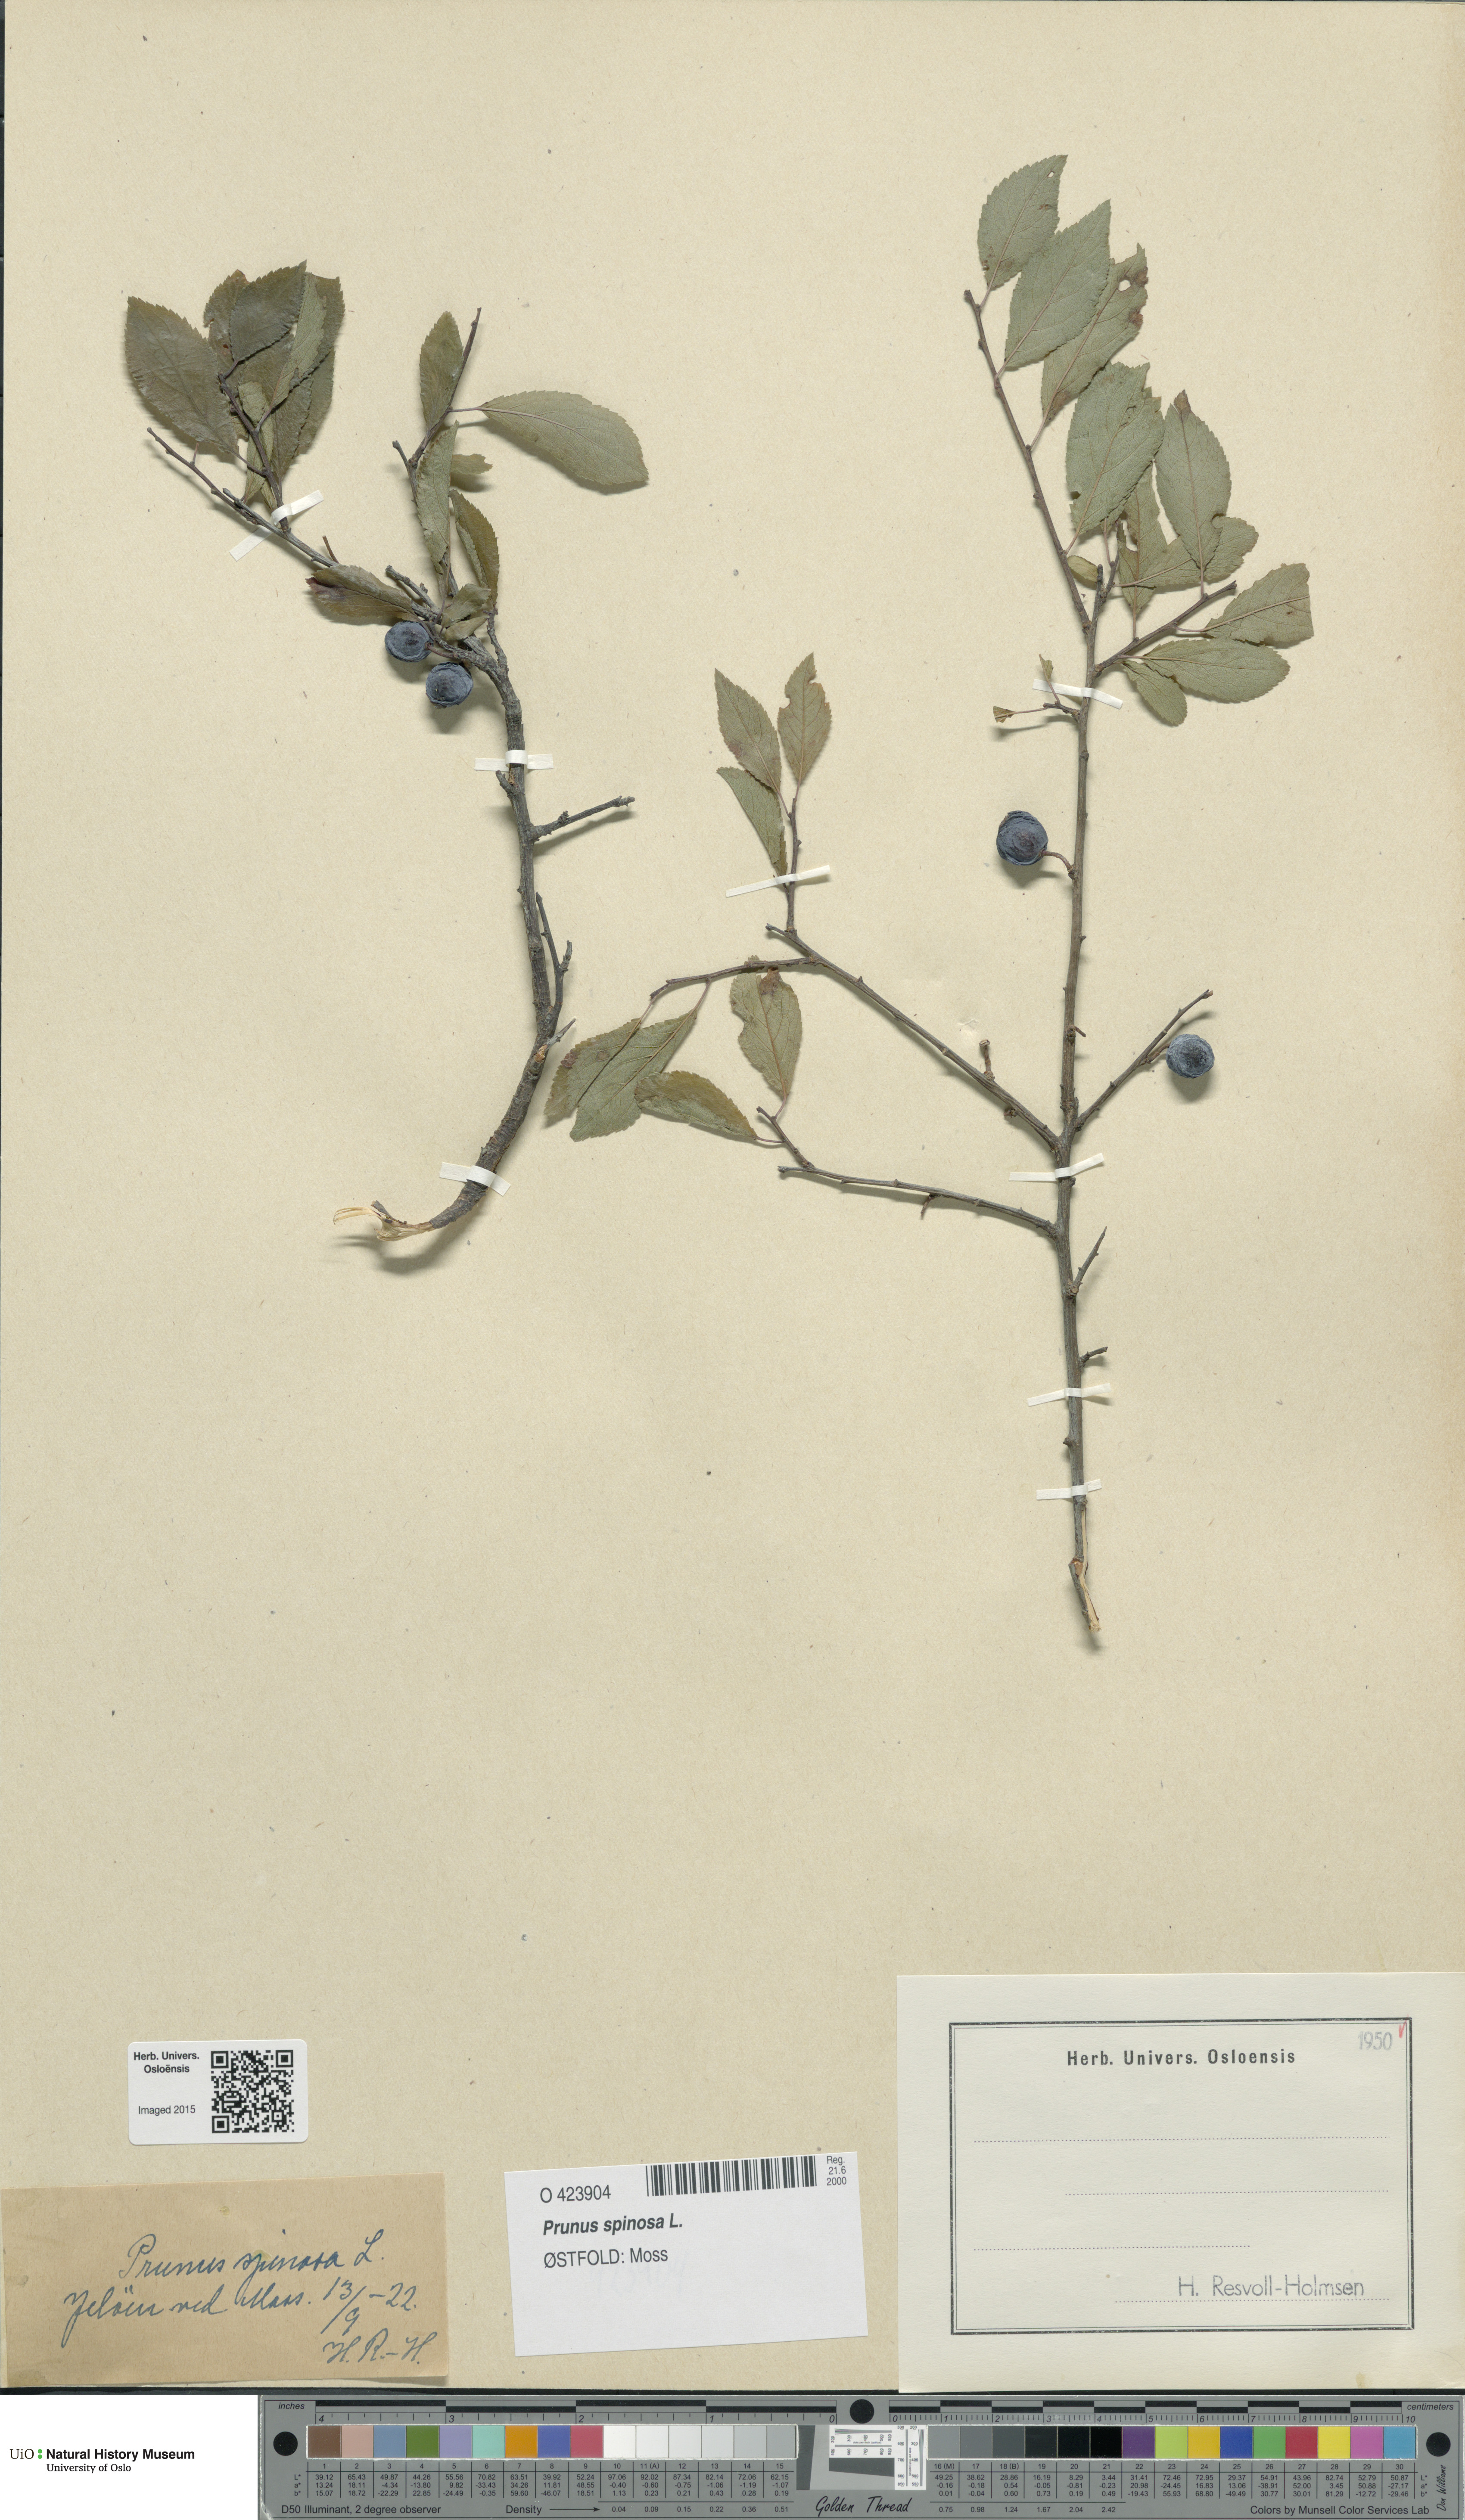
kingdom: Plantae
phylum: Tracheophyta
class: Magnoliopsida
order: Rosales
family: Rosaceae
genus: Prunus
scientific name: Prunus spinosa
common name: Blackthorn
